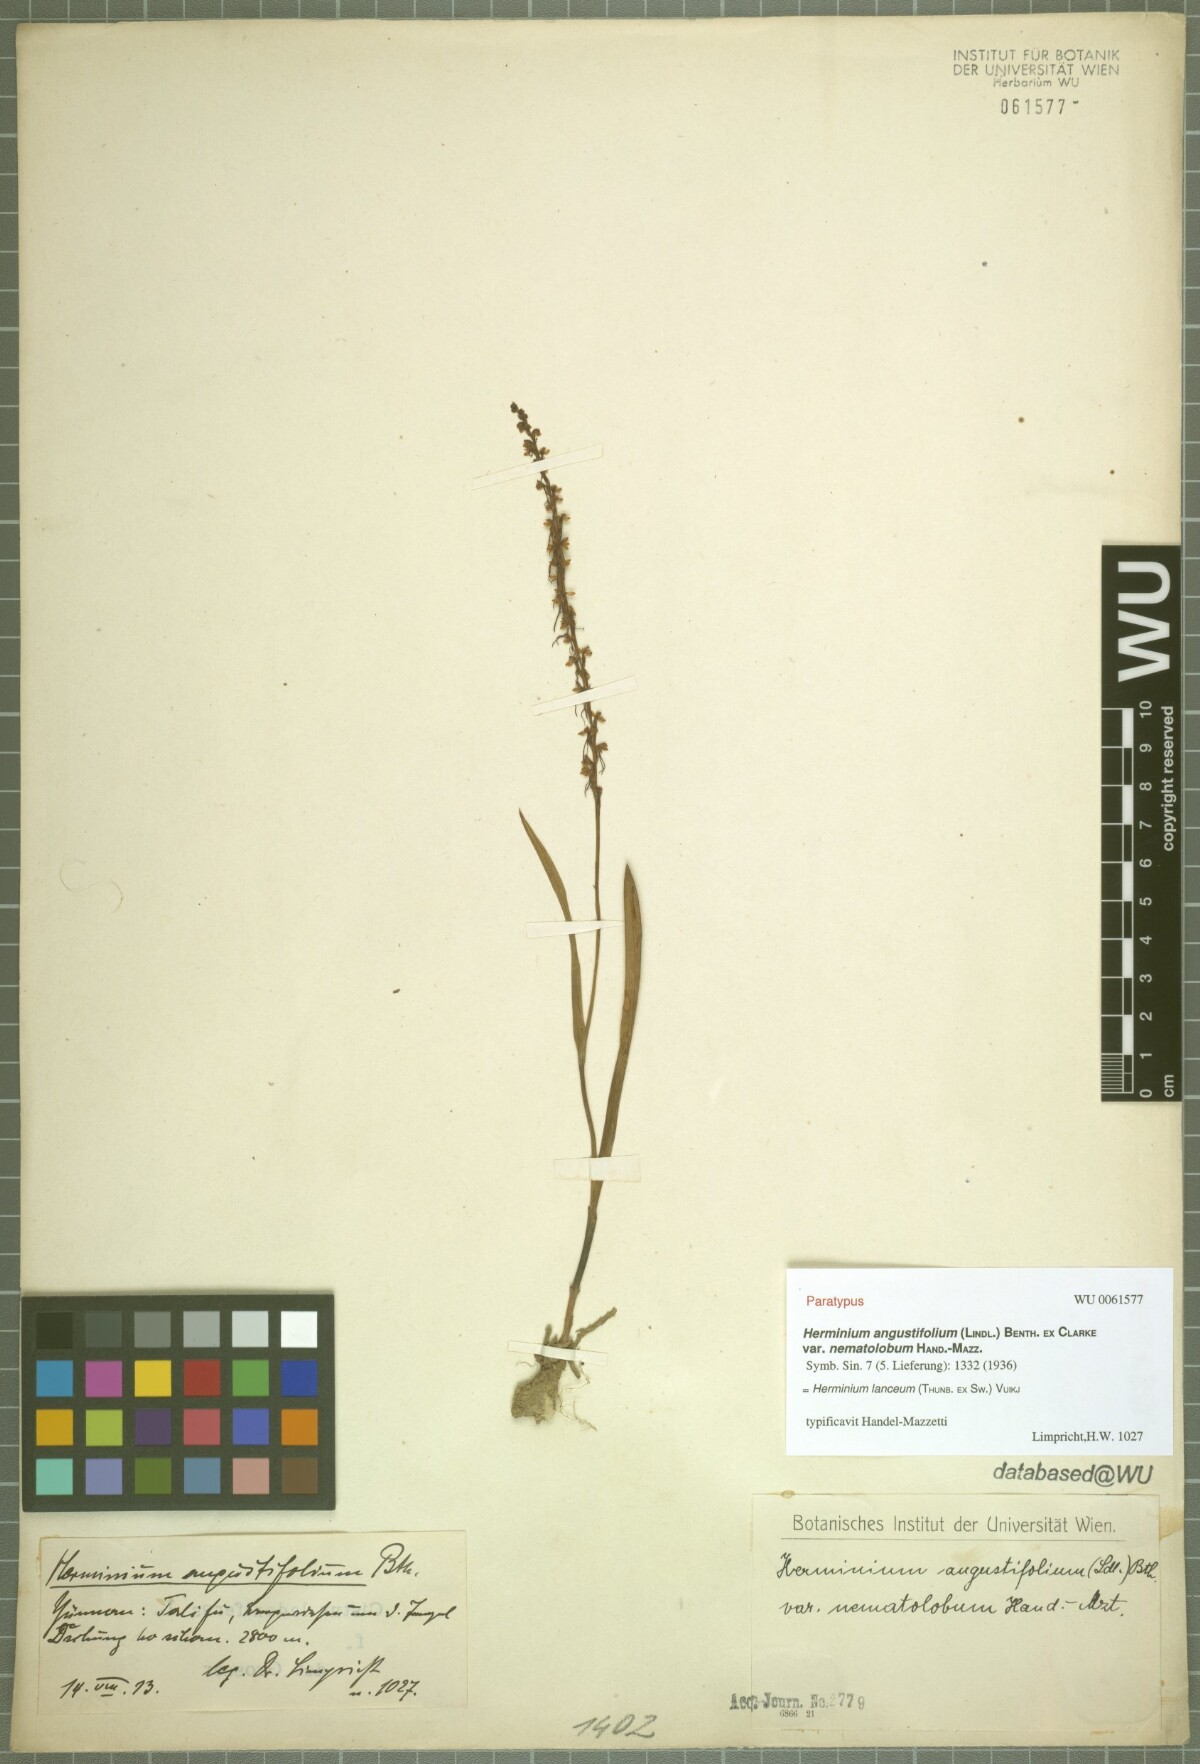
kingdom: Plantae
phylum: Tracheophyta
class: Liliopsida
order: Asparagales
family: Orchidaceae
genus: Herminium
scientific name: Herminium lanceum
